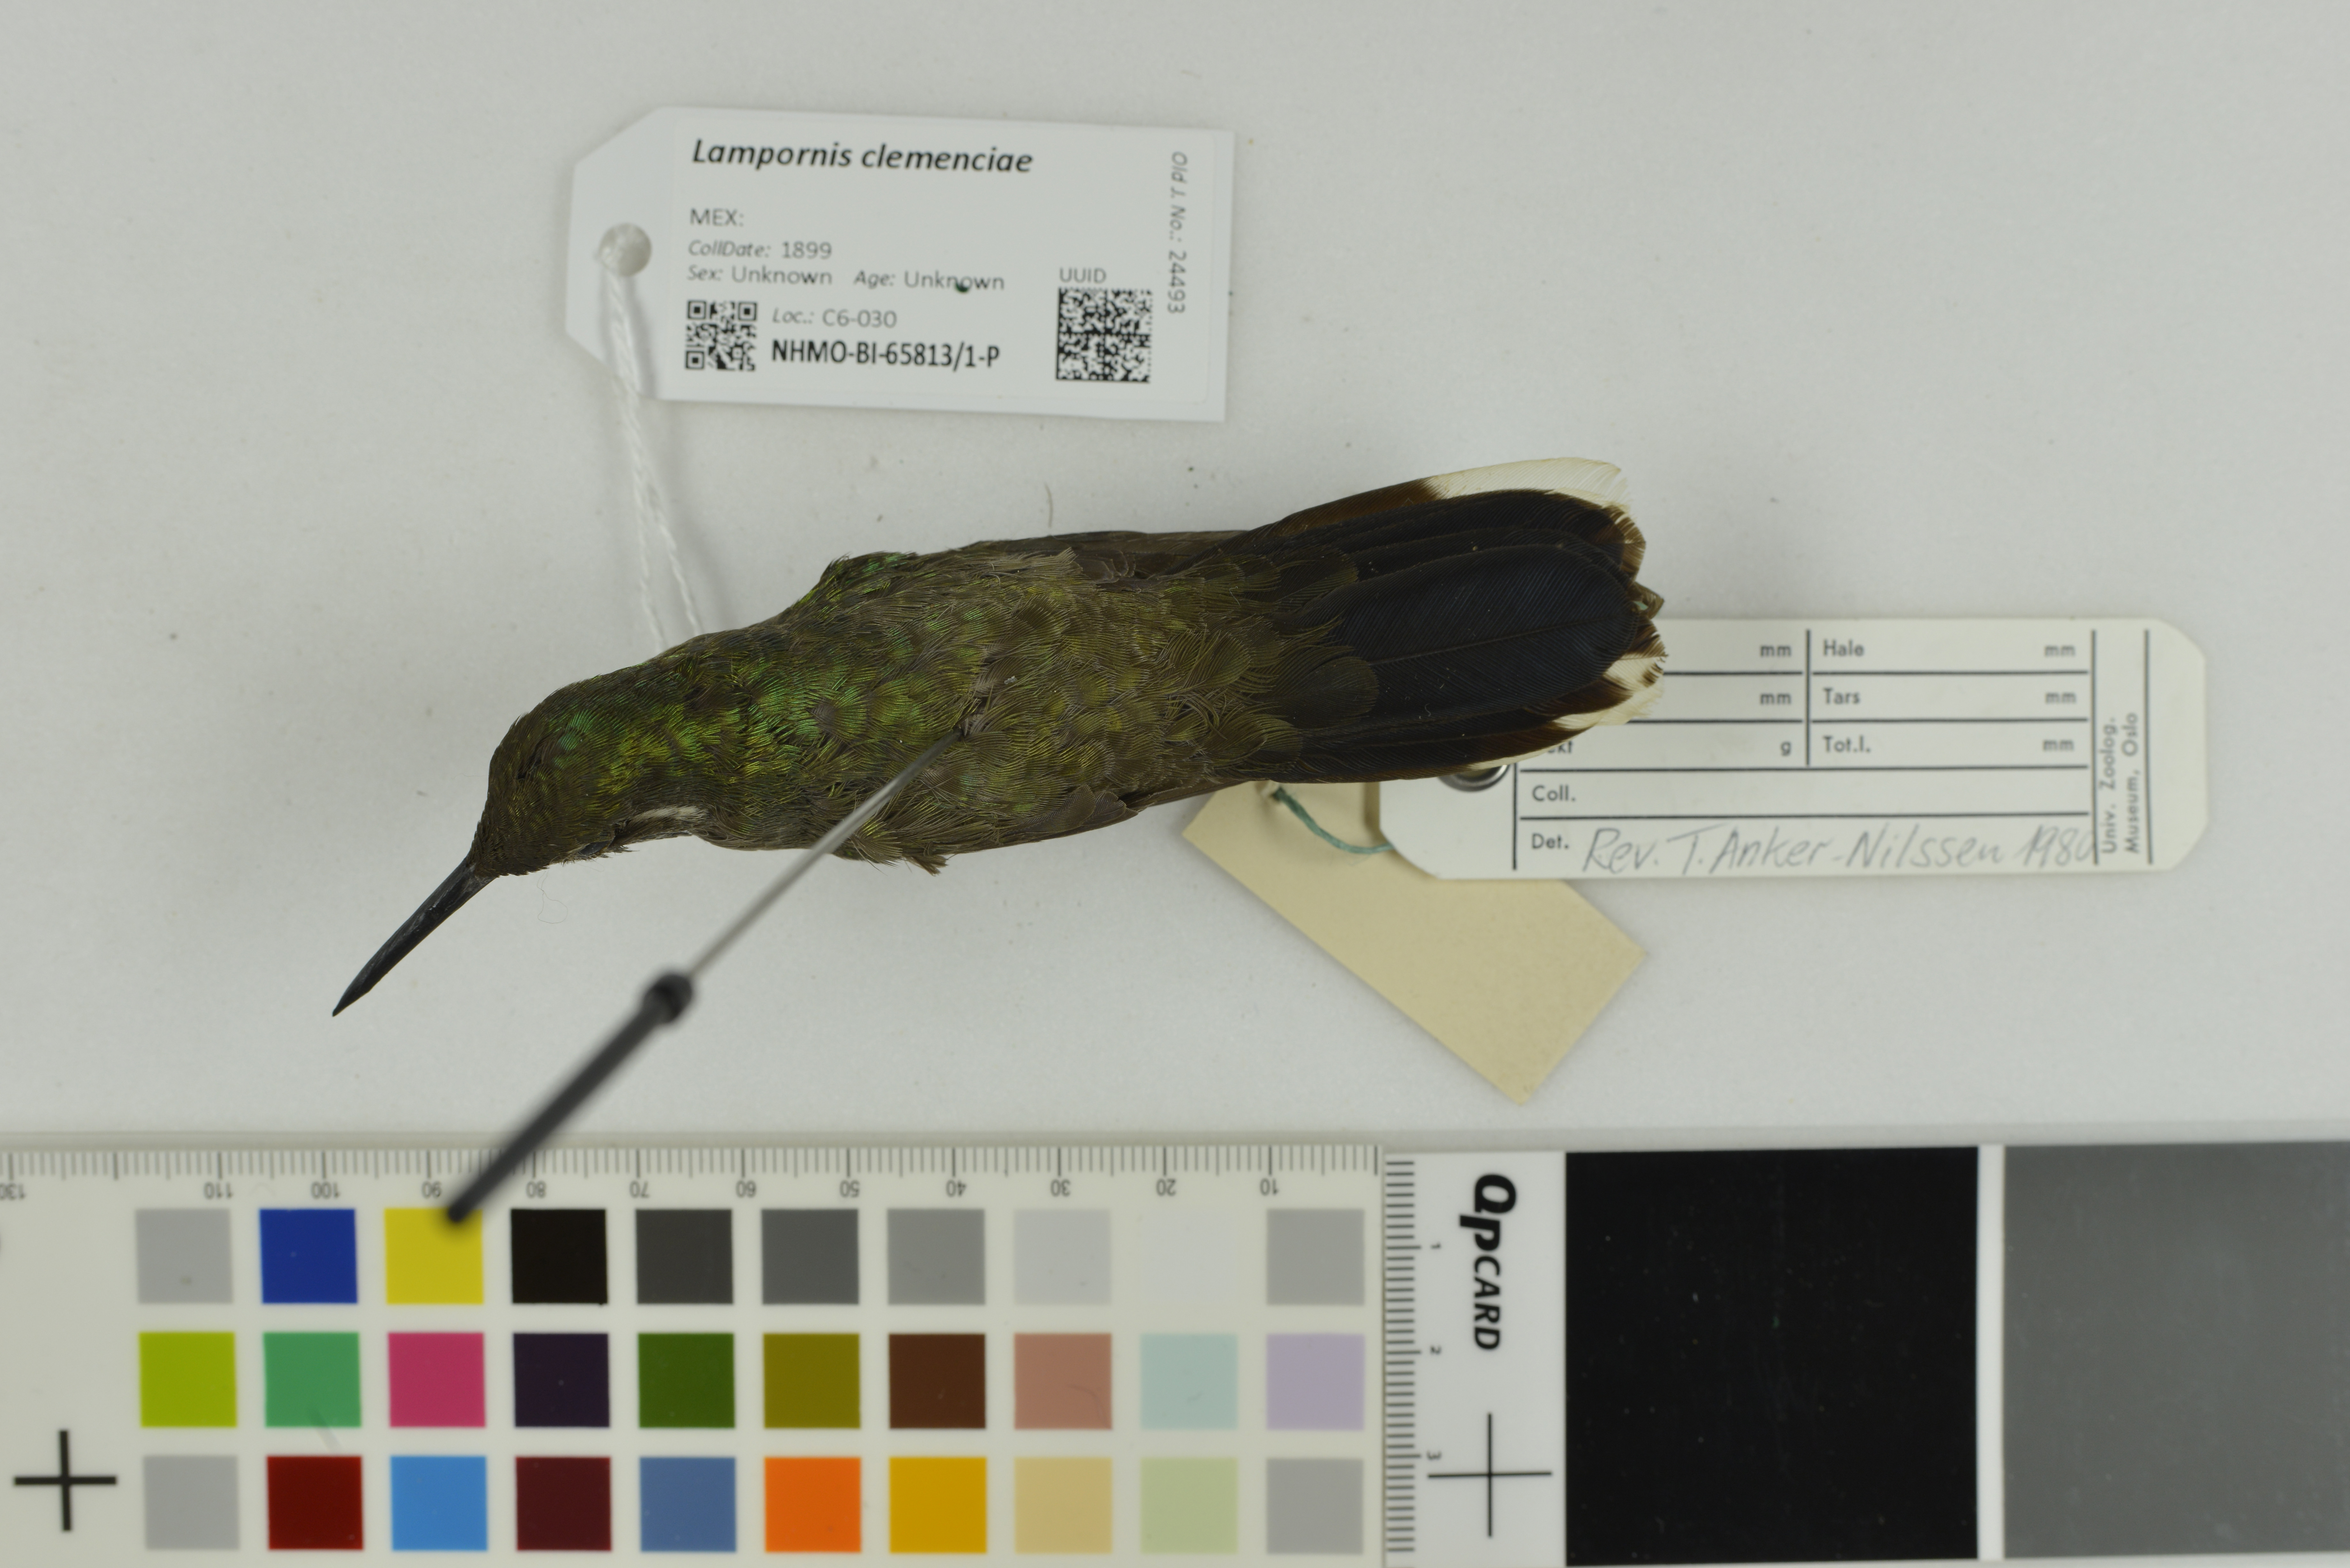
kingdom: Animalia
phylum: Chordata
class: Aves
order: Apodiformes
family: Trochilidae
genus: Lampornis
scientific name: Lampornis clemenciae
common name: Blue-throated mountaingem
